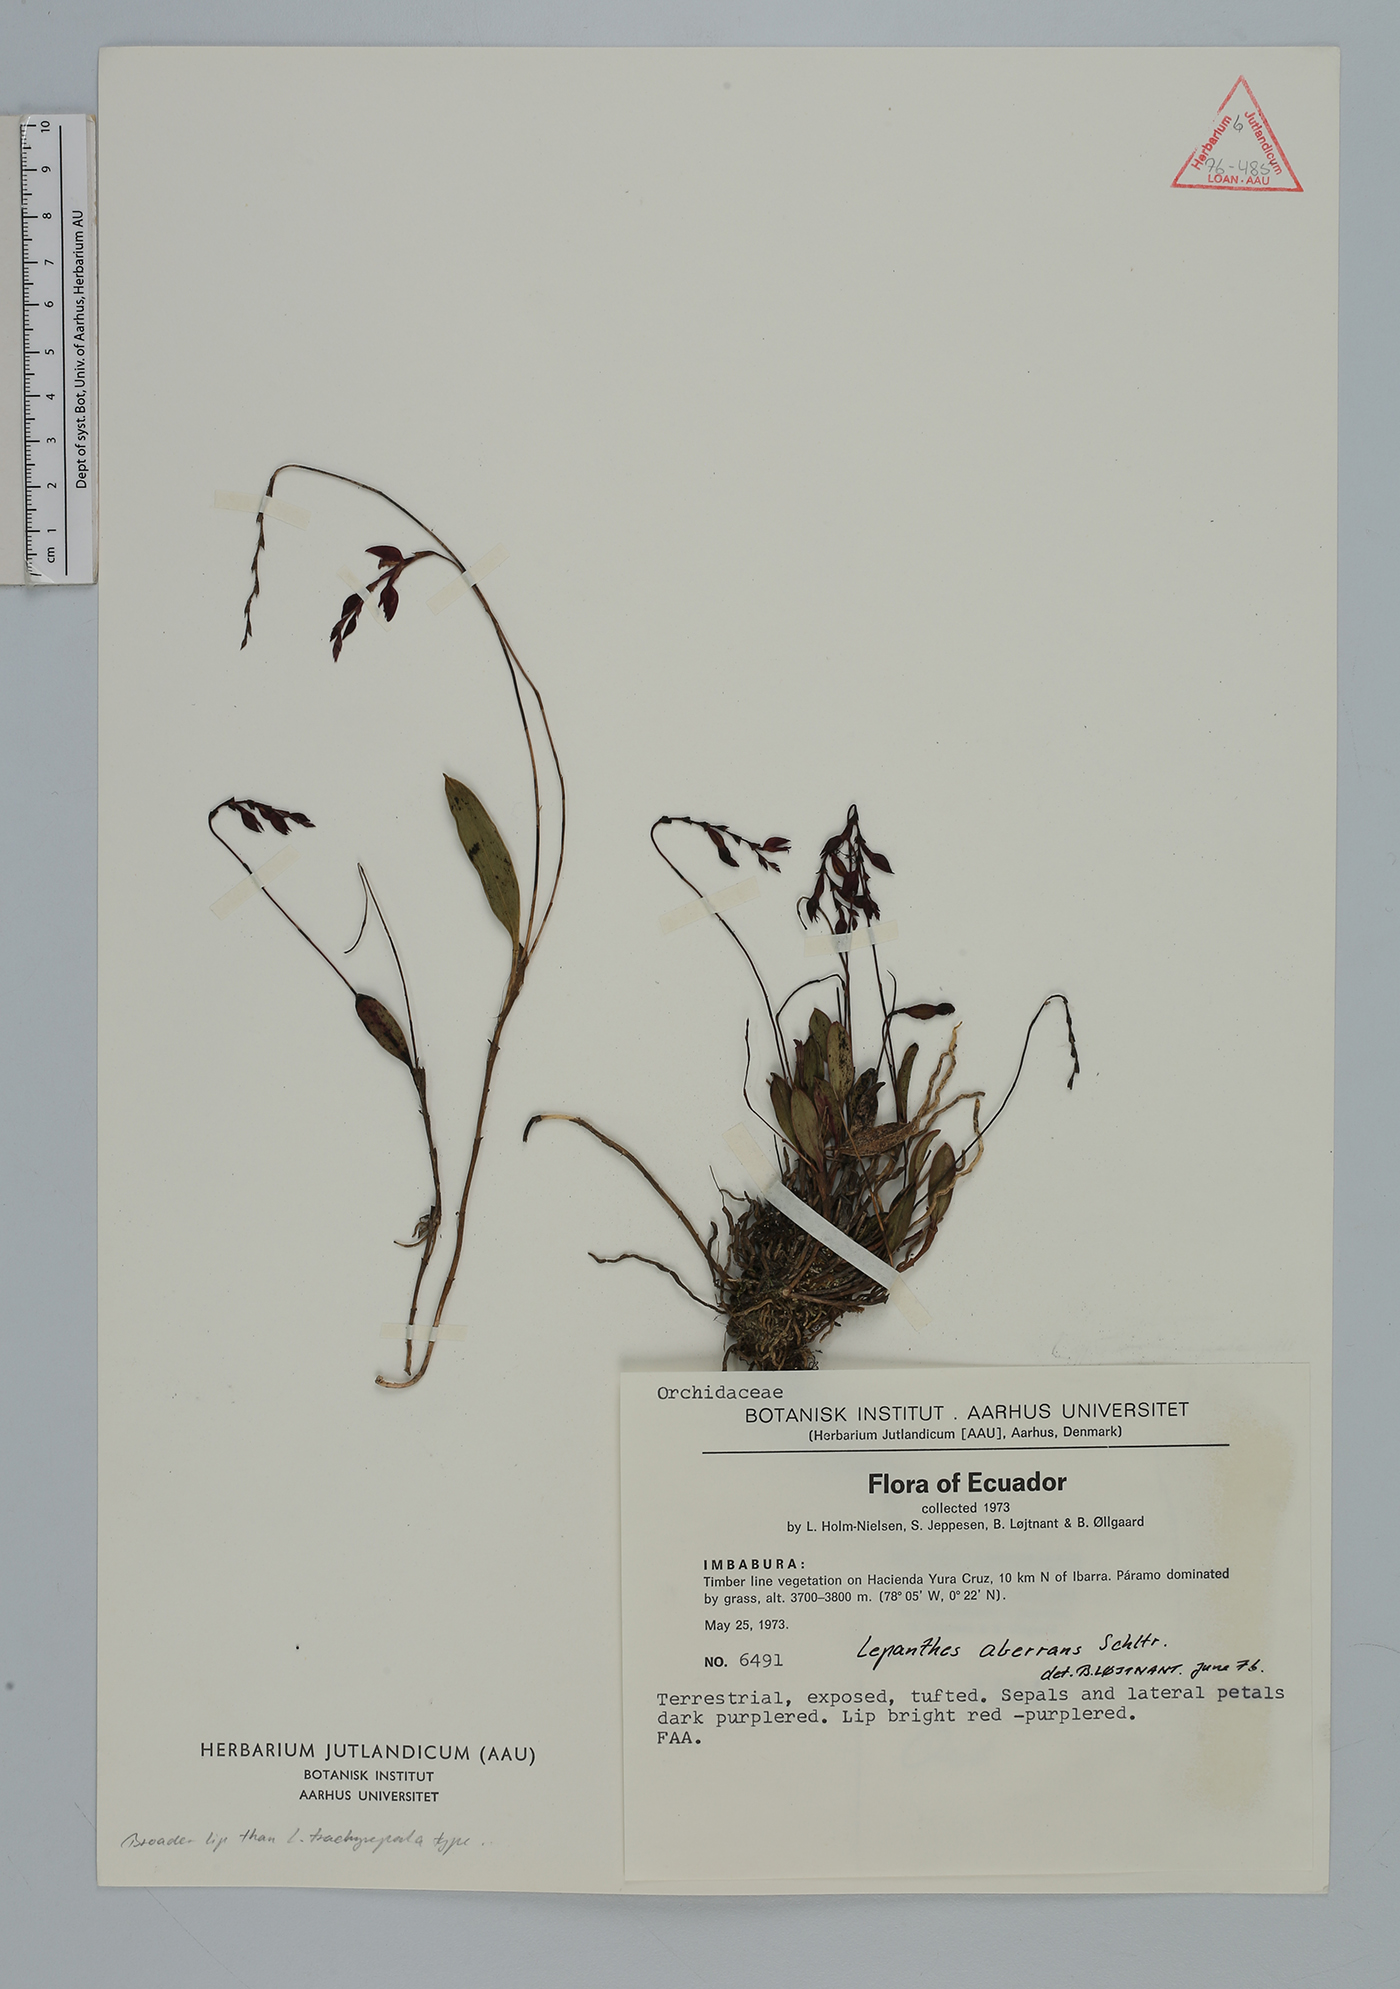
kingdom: Plantae
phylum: Tracheophyta
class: Liliopsida
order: Asparagales
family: Orchidaceae
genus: Draconanthes
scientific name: Draconanthes aberrans
